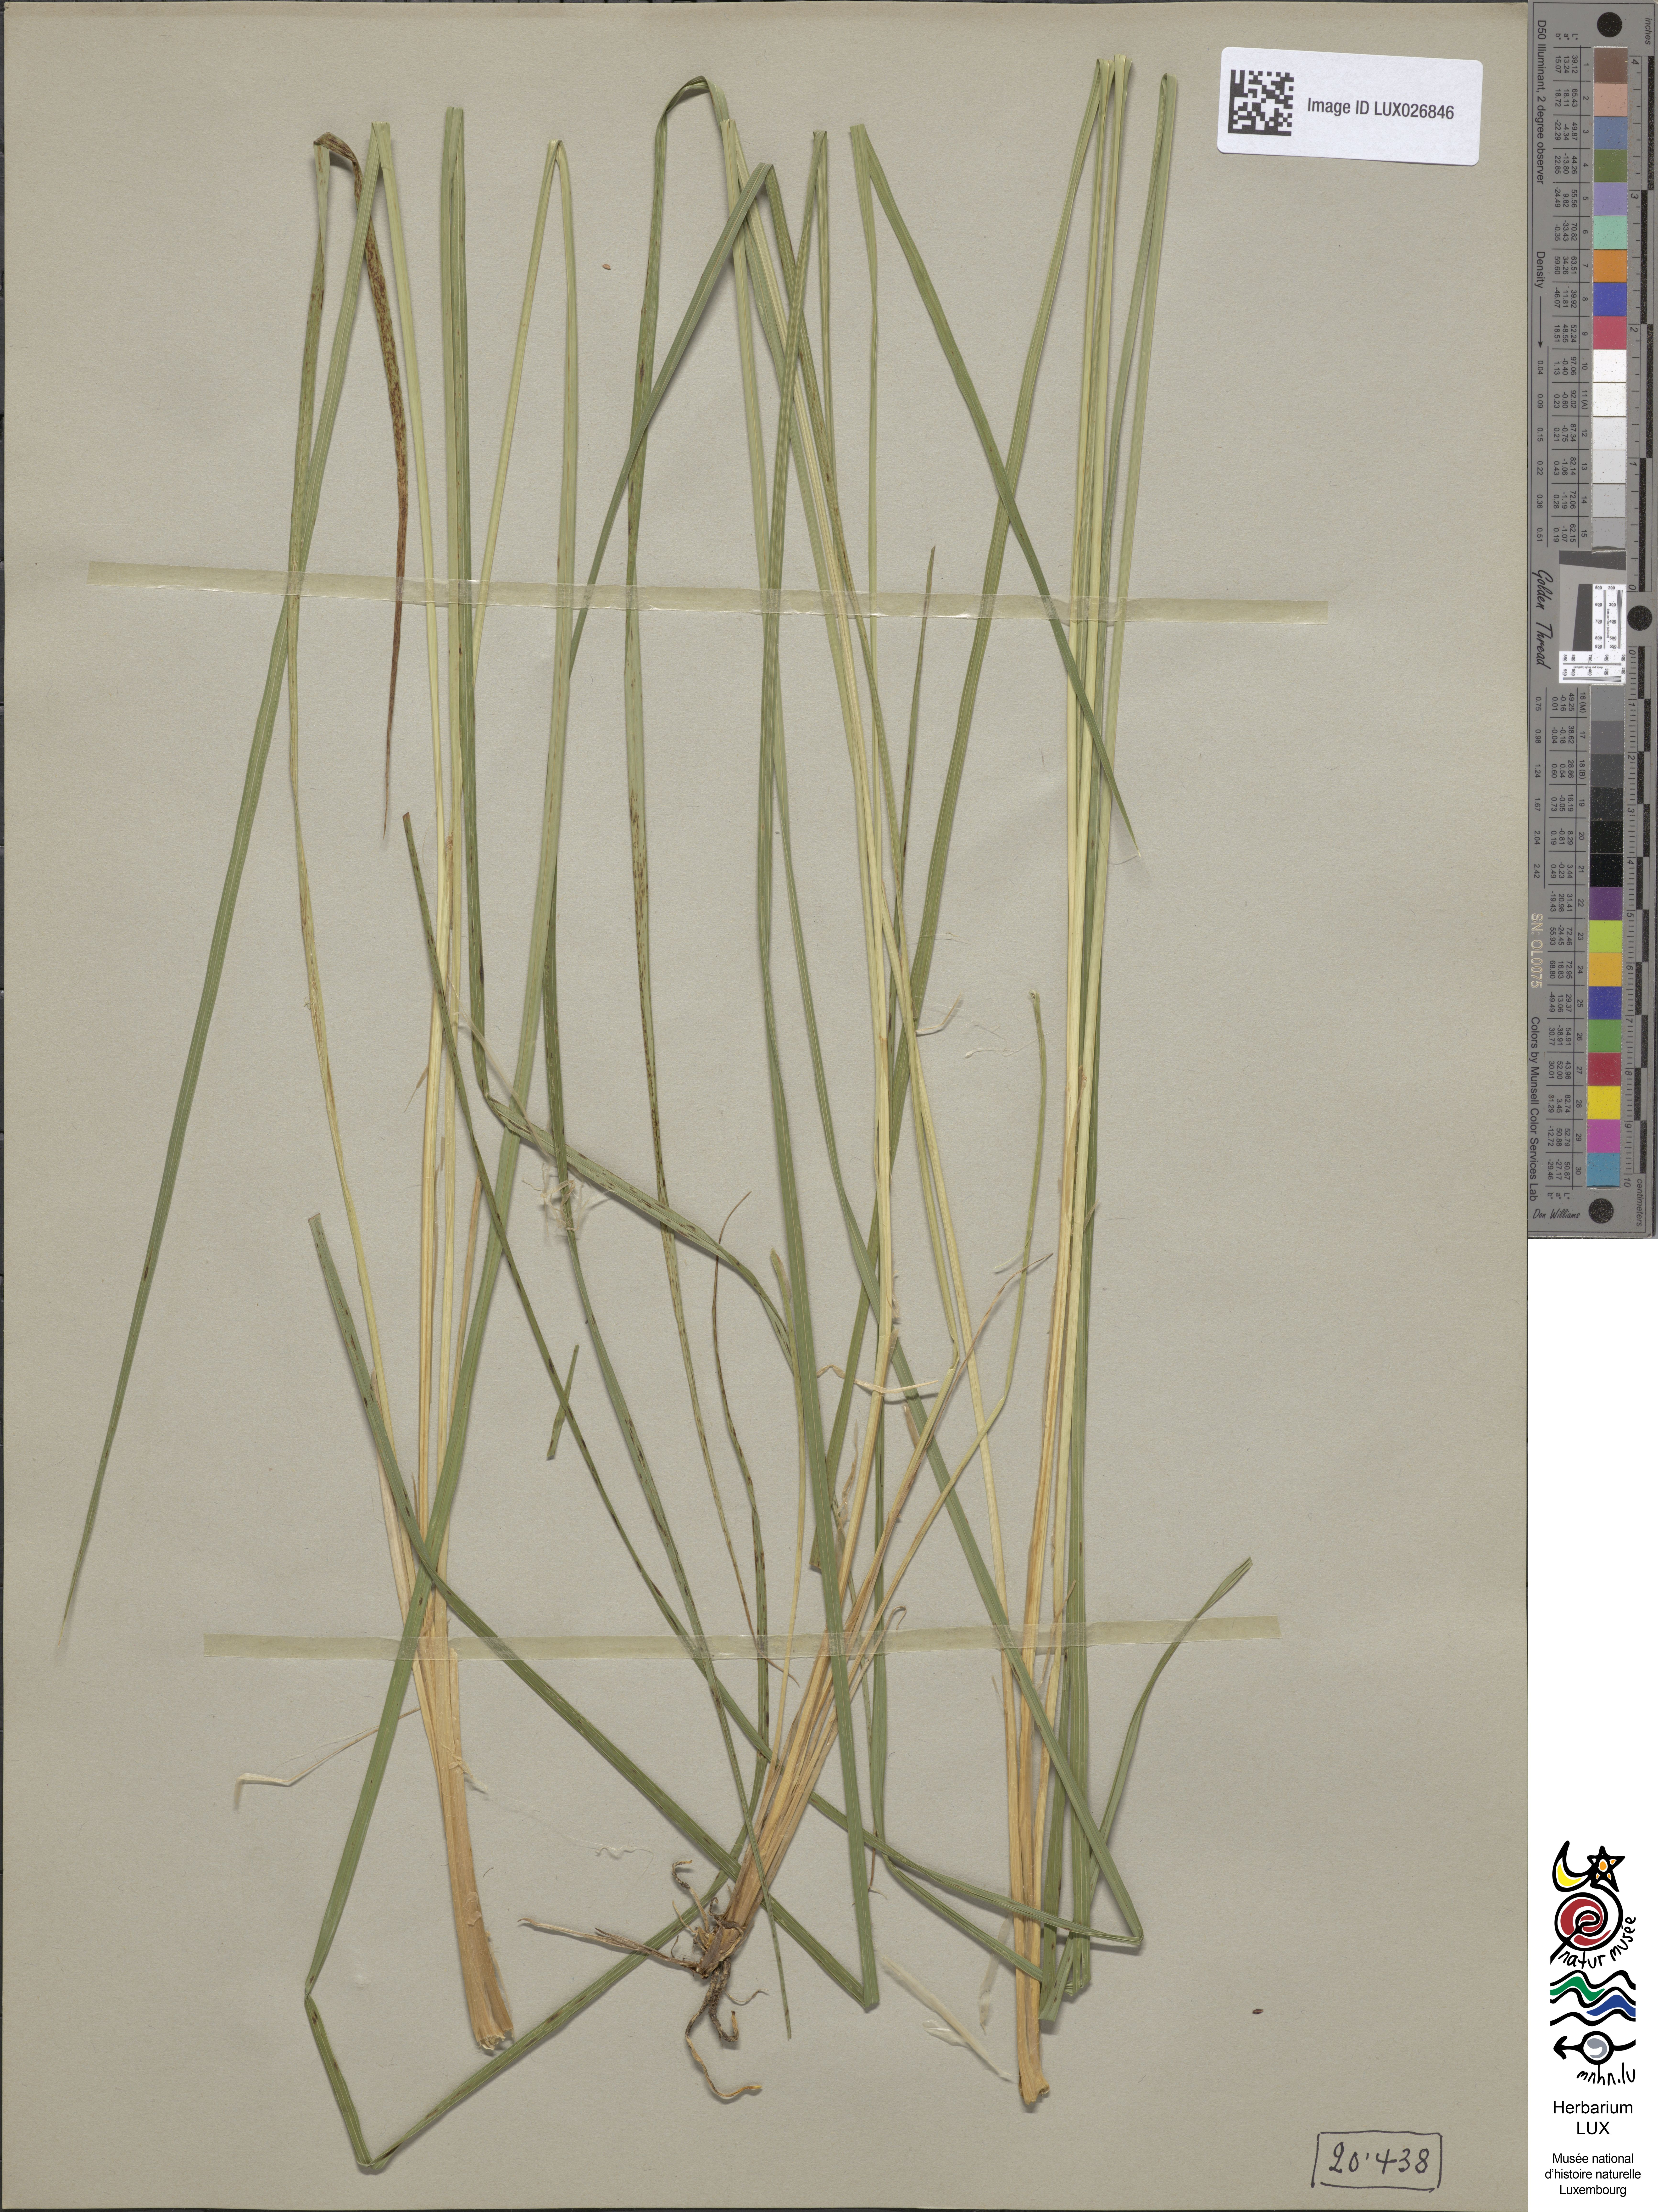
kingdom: Plantae
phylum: Tracheophyta
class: Liliopsida
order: Poales
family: Cyperaceae
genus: Carex
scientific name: Carex elata
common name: Tufted sedge
